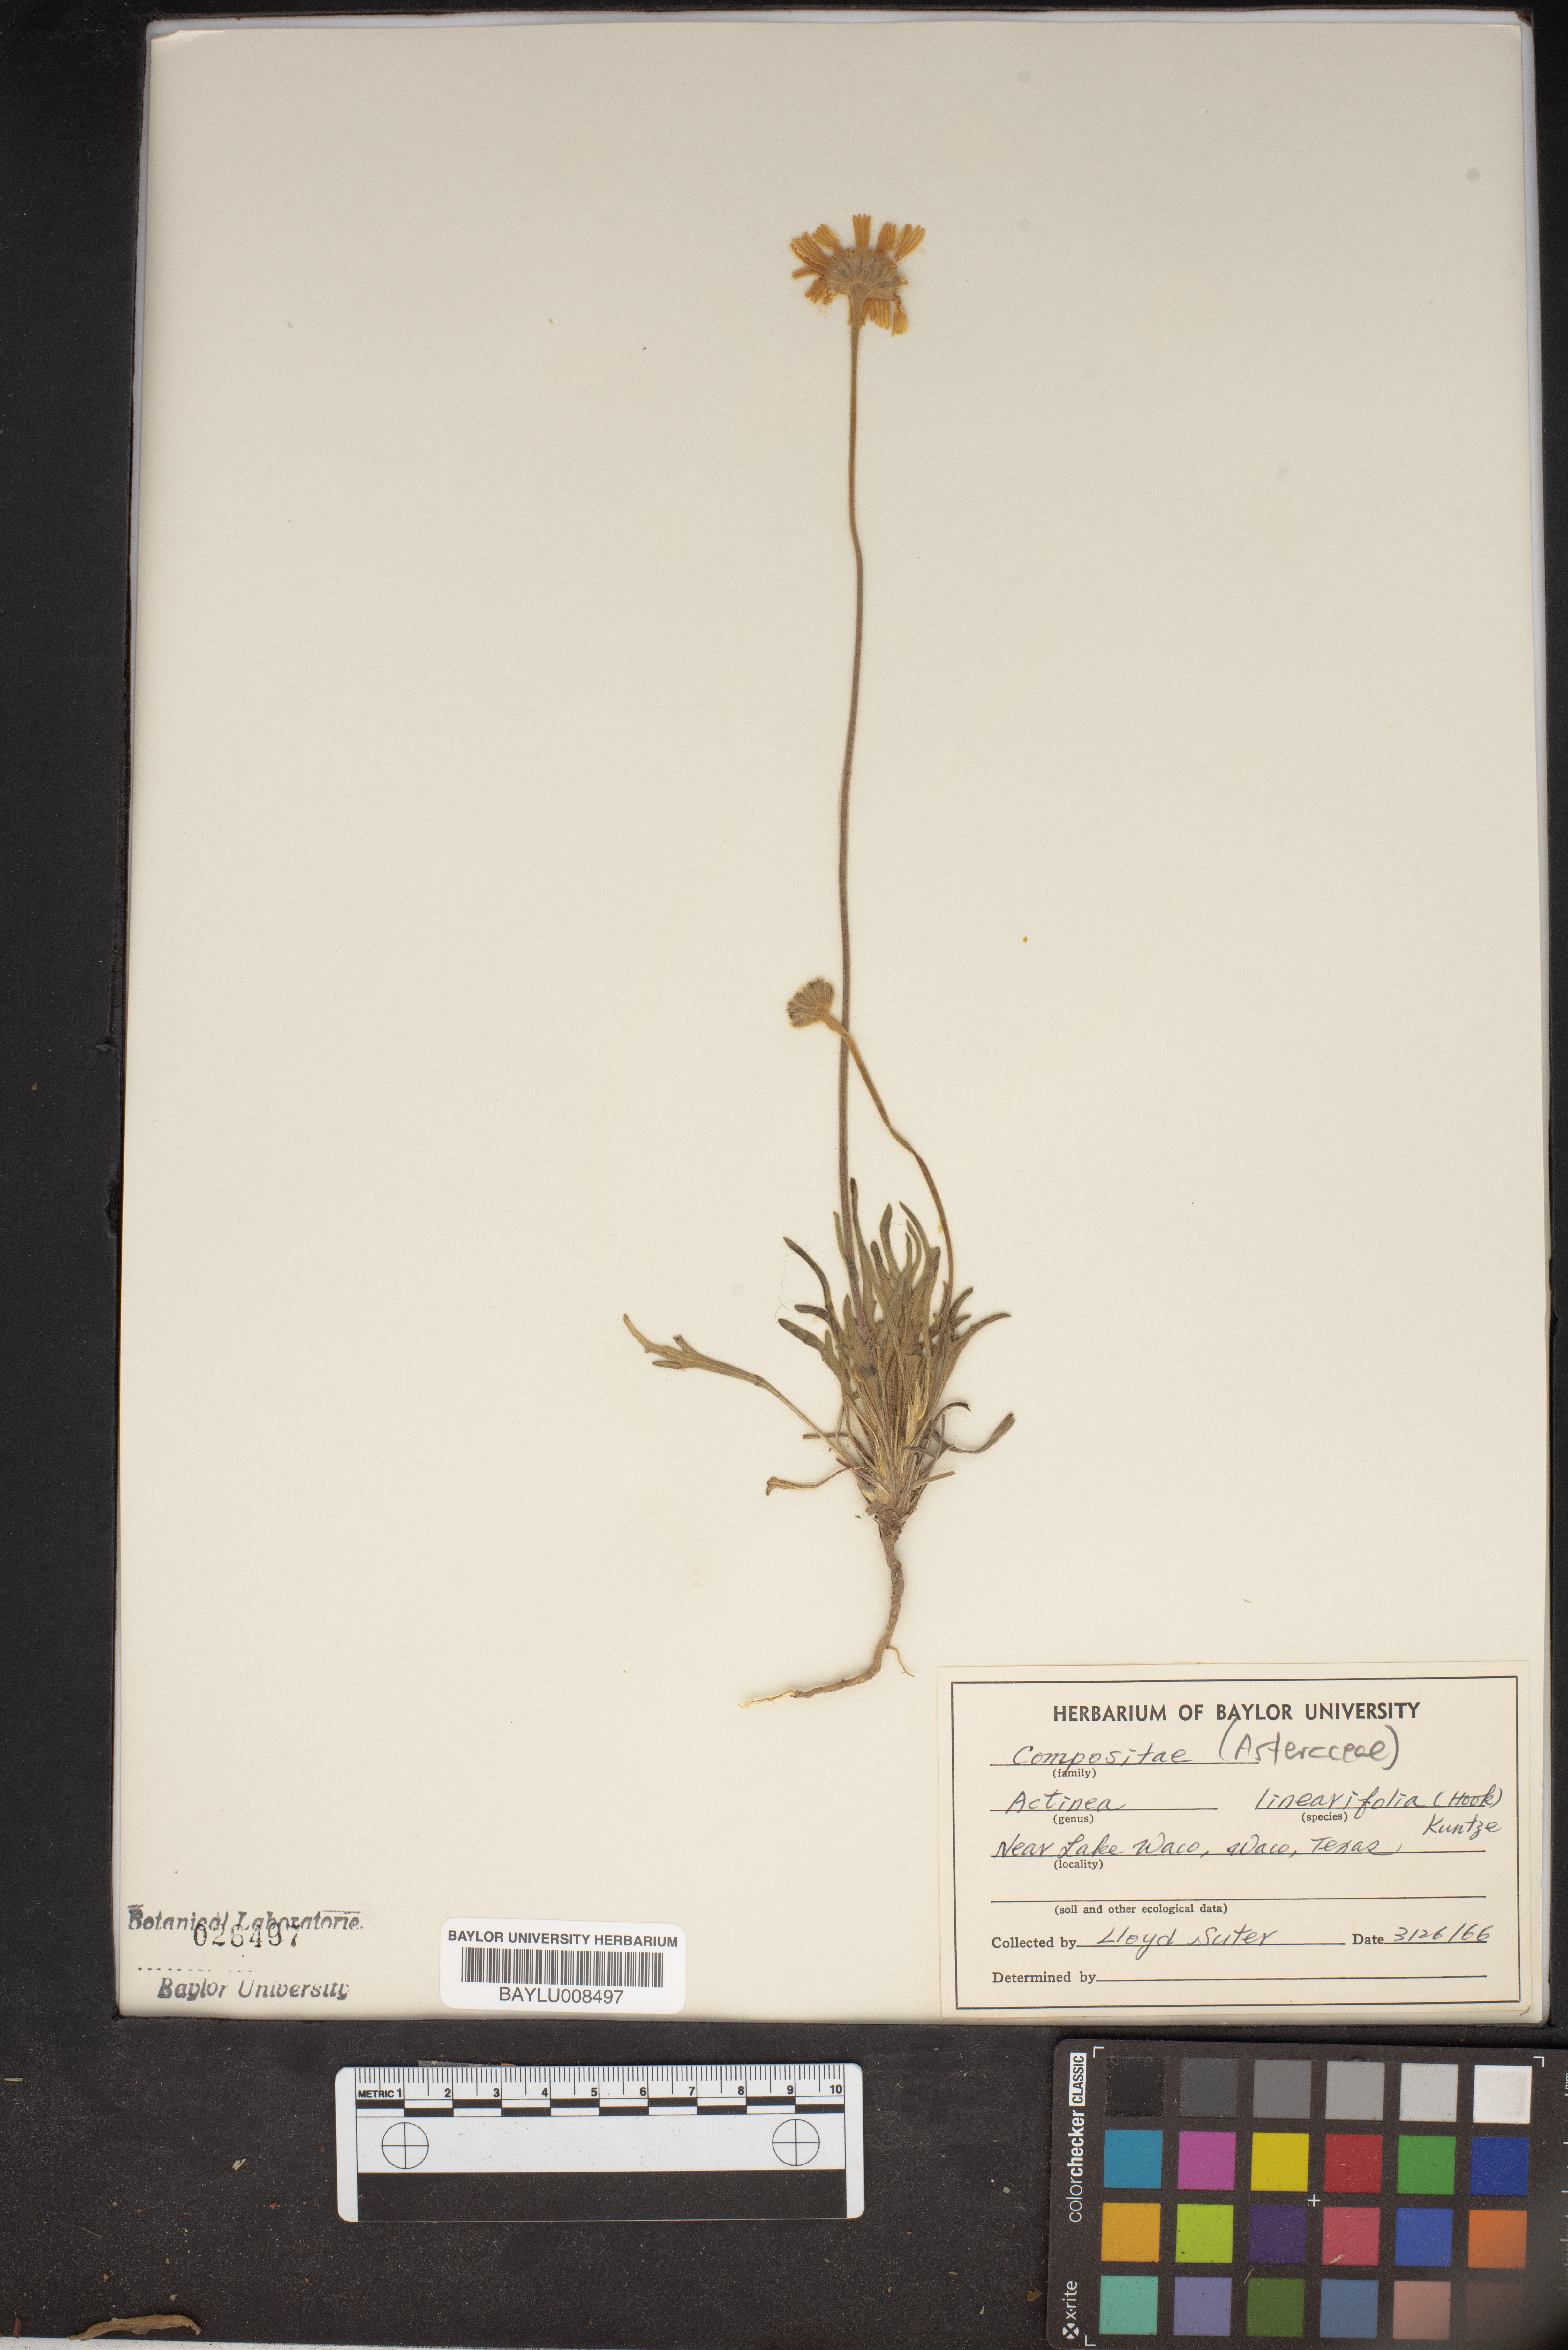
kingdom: Plantae
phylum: Tracheophyta
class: Magnoliopsida
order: Asterales
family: Asteraceae
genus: Tetraneuris
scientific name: Tetraneuris linearifolia
